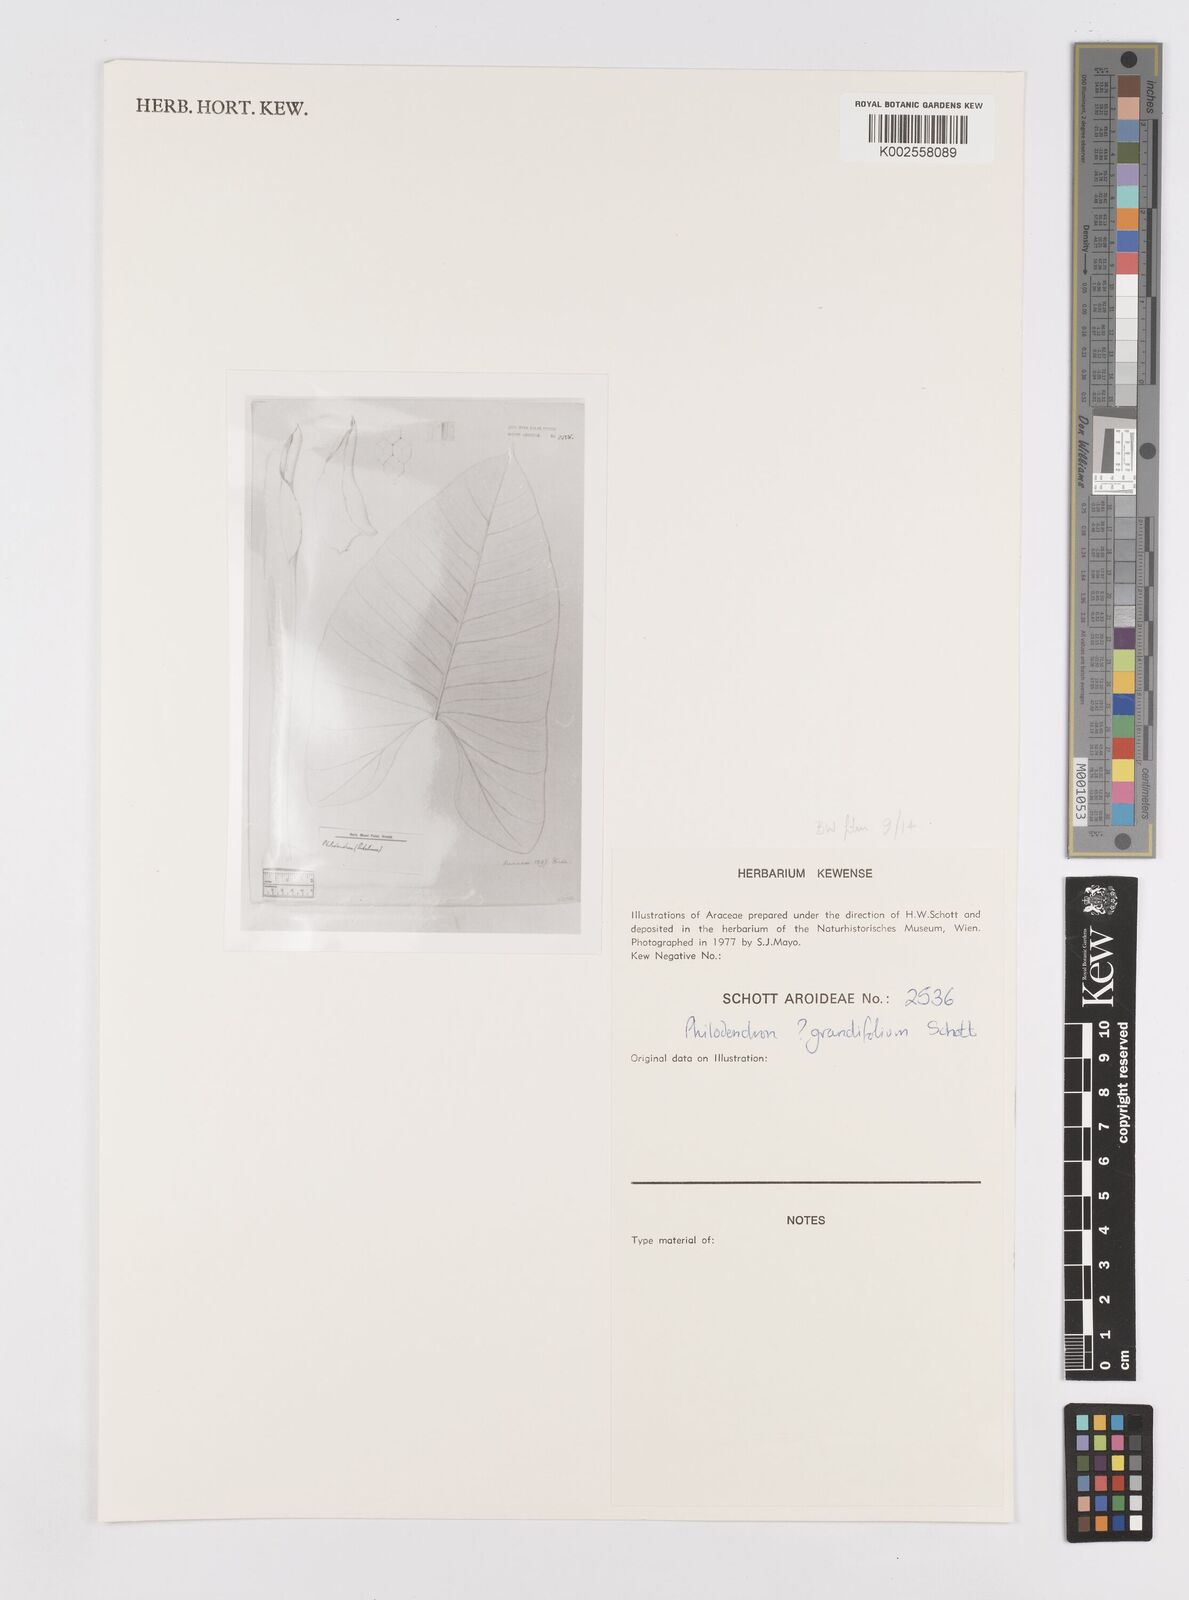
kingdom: Plantae
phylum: Tracheophyta
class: Liliopsida
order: Alismatales
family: Araceae
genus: Philodendron
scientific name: Philodendron grandifolium
